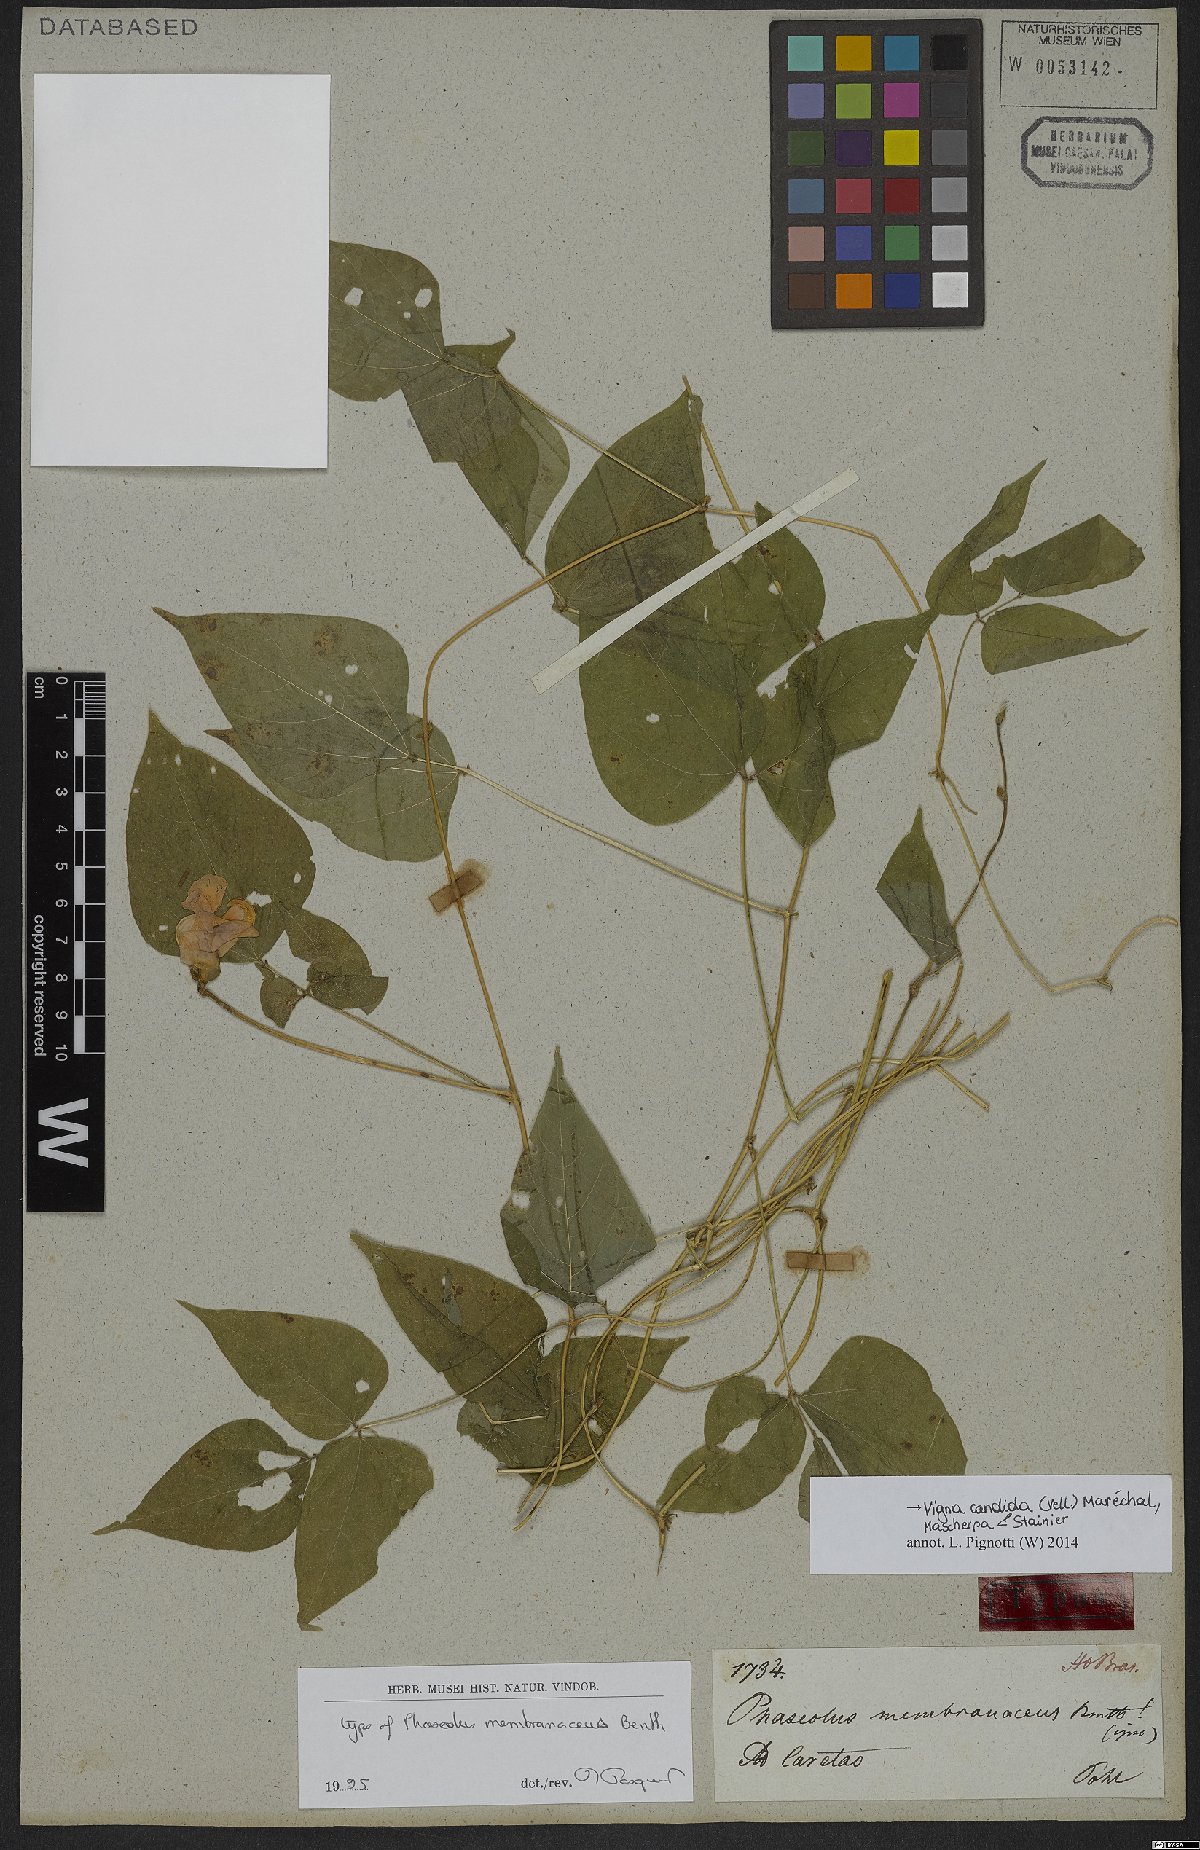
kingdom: Plantae
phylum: Tracheophyta
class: Magnoliopsida
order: Fabales
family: Fabaceae
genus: Condylostylis
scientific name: Condylostylis candida
